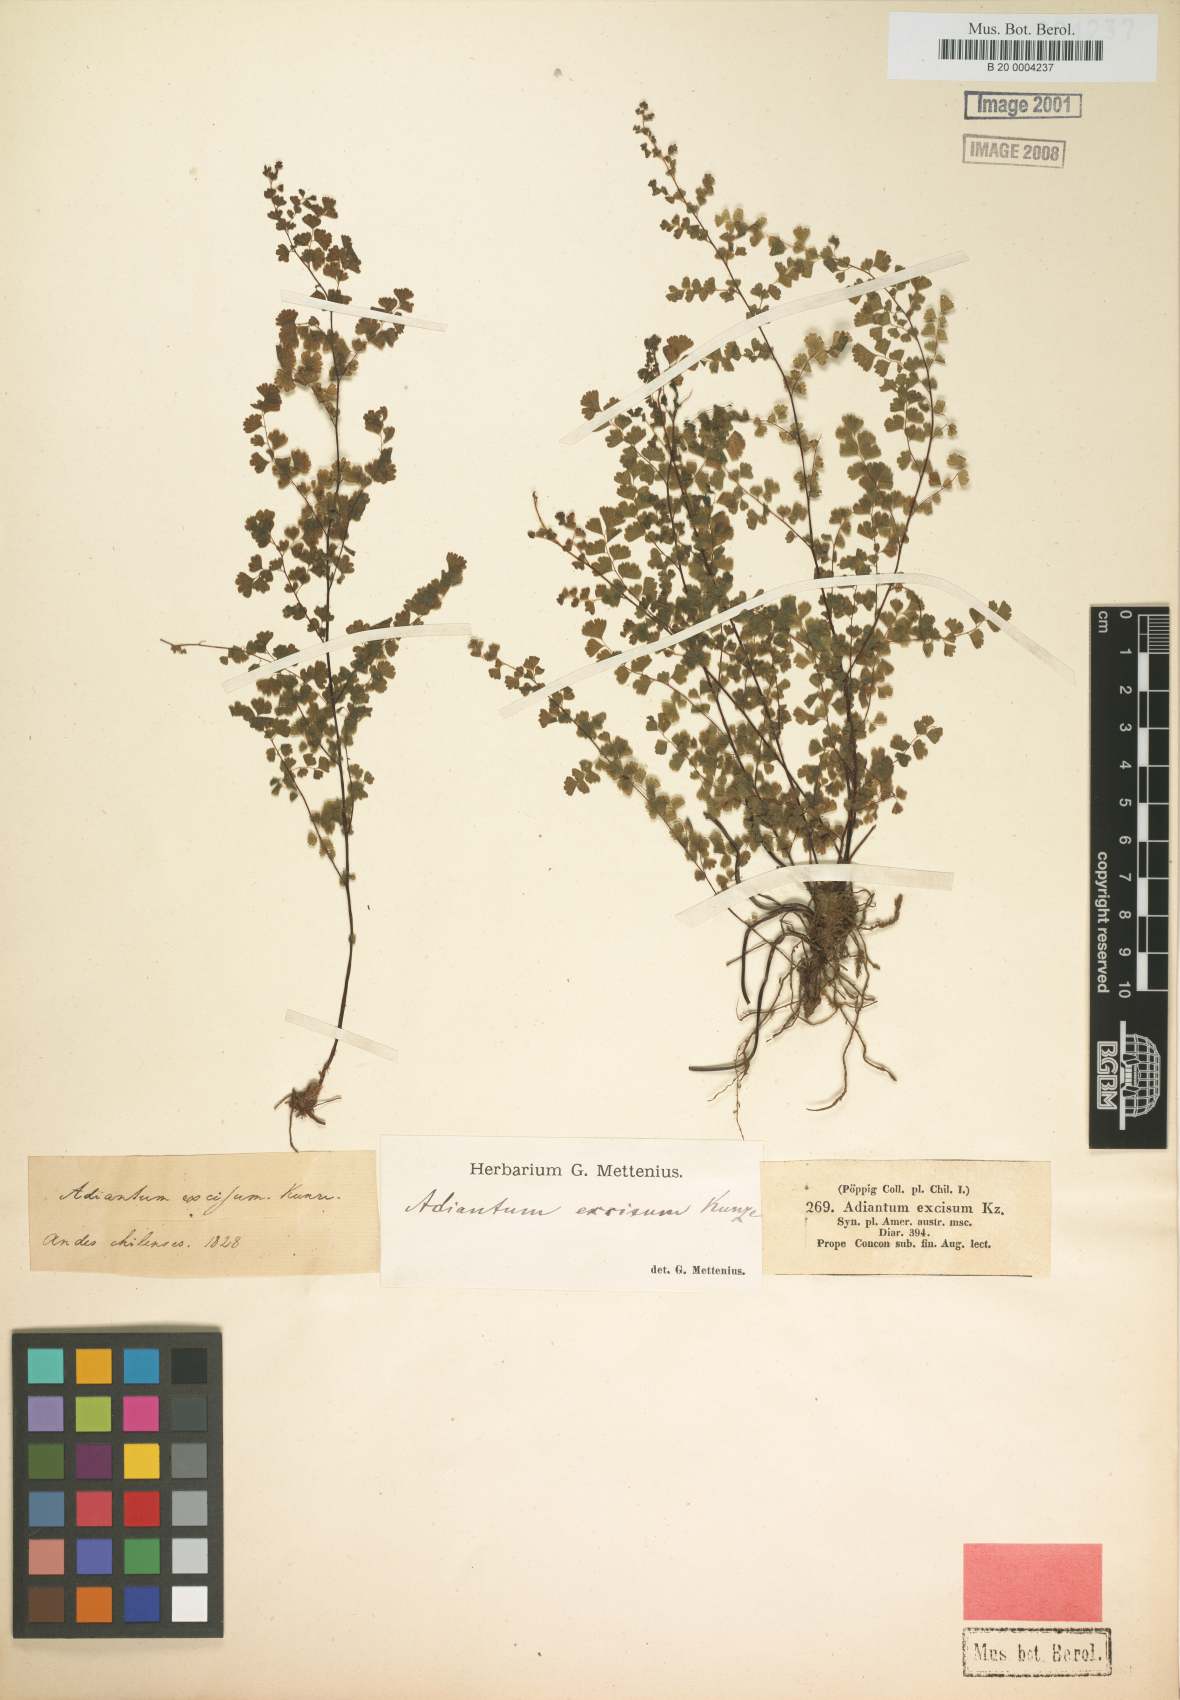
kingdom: Plantae
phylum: Tracheophyta
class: Polypodiopsida
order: Polypodiales
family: Pteridaceae
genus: Adiantum
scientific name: Adiantum excisum
